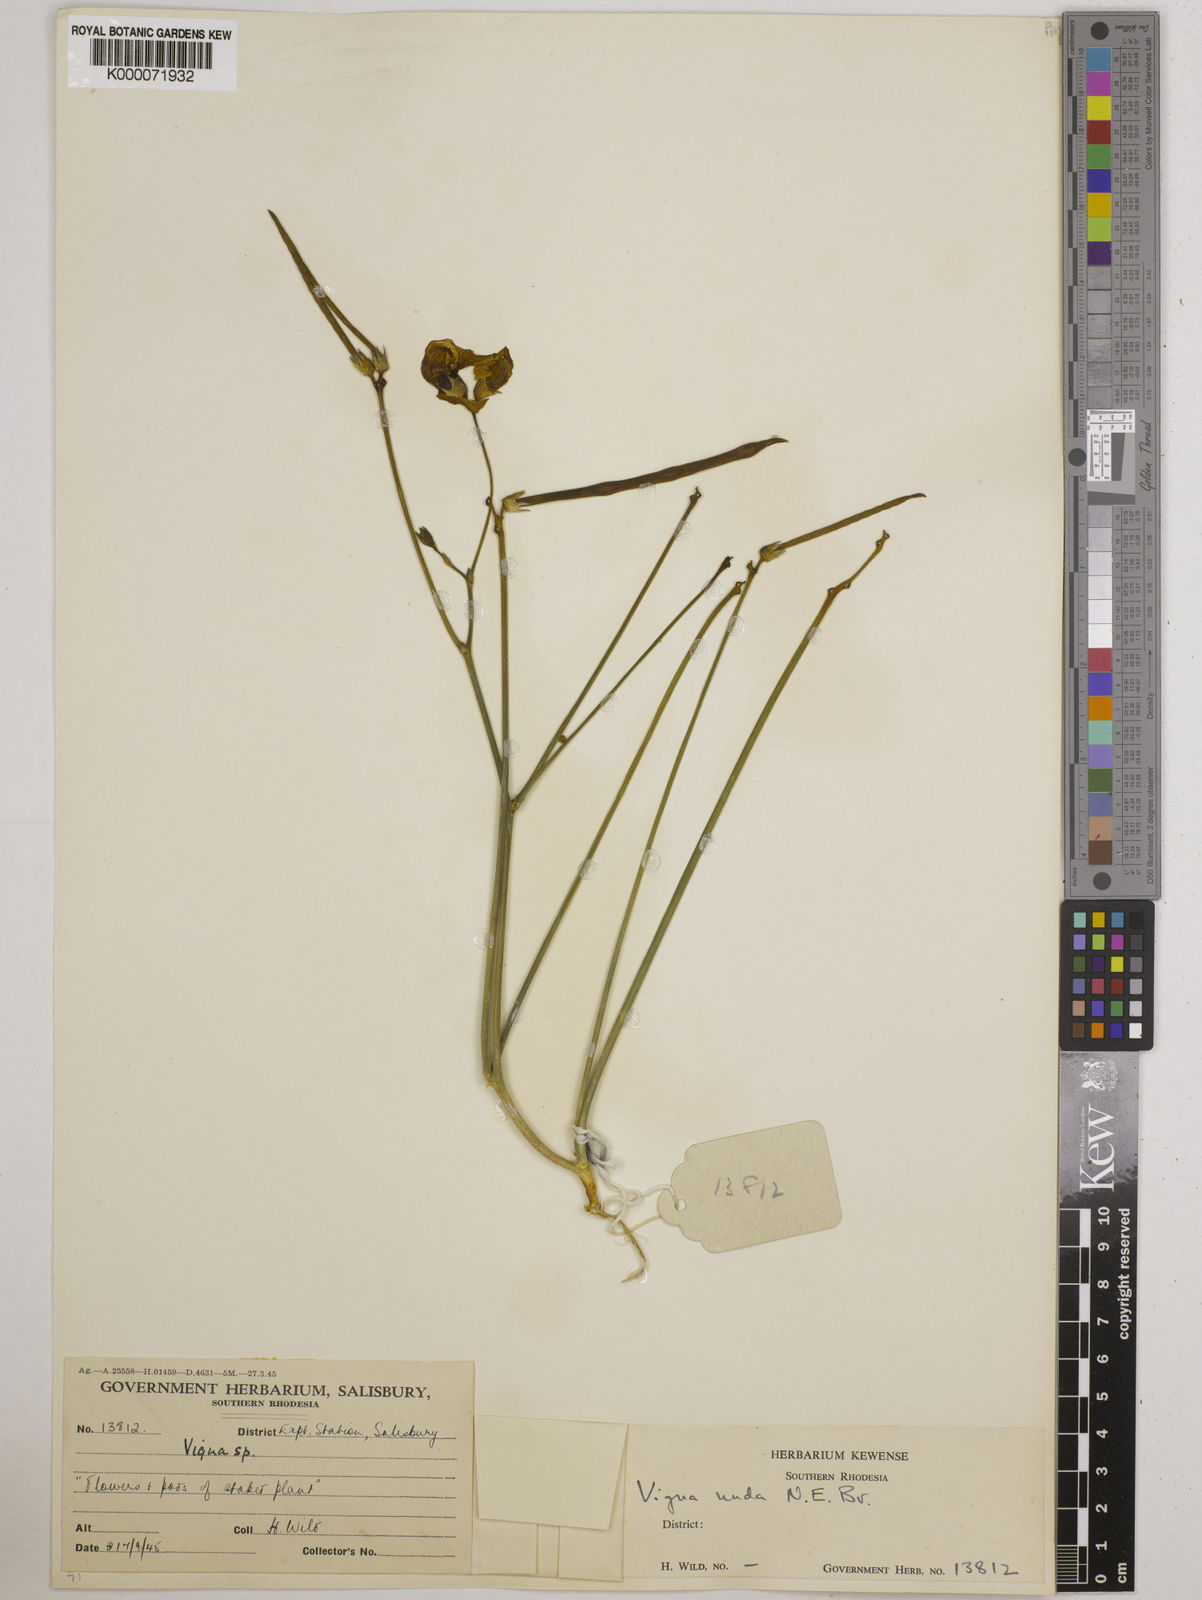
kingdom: Plantae
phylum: Tracheophyta
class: Magnoliopsida
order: Fabales
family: Fabaceae
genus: Vigna
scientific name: Vigna antunesii
